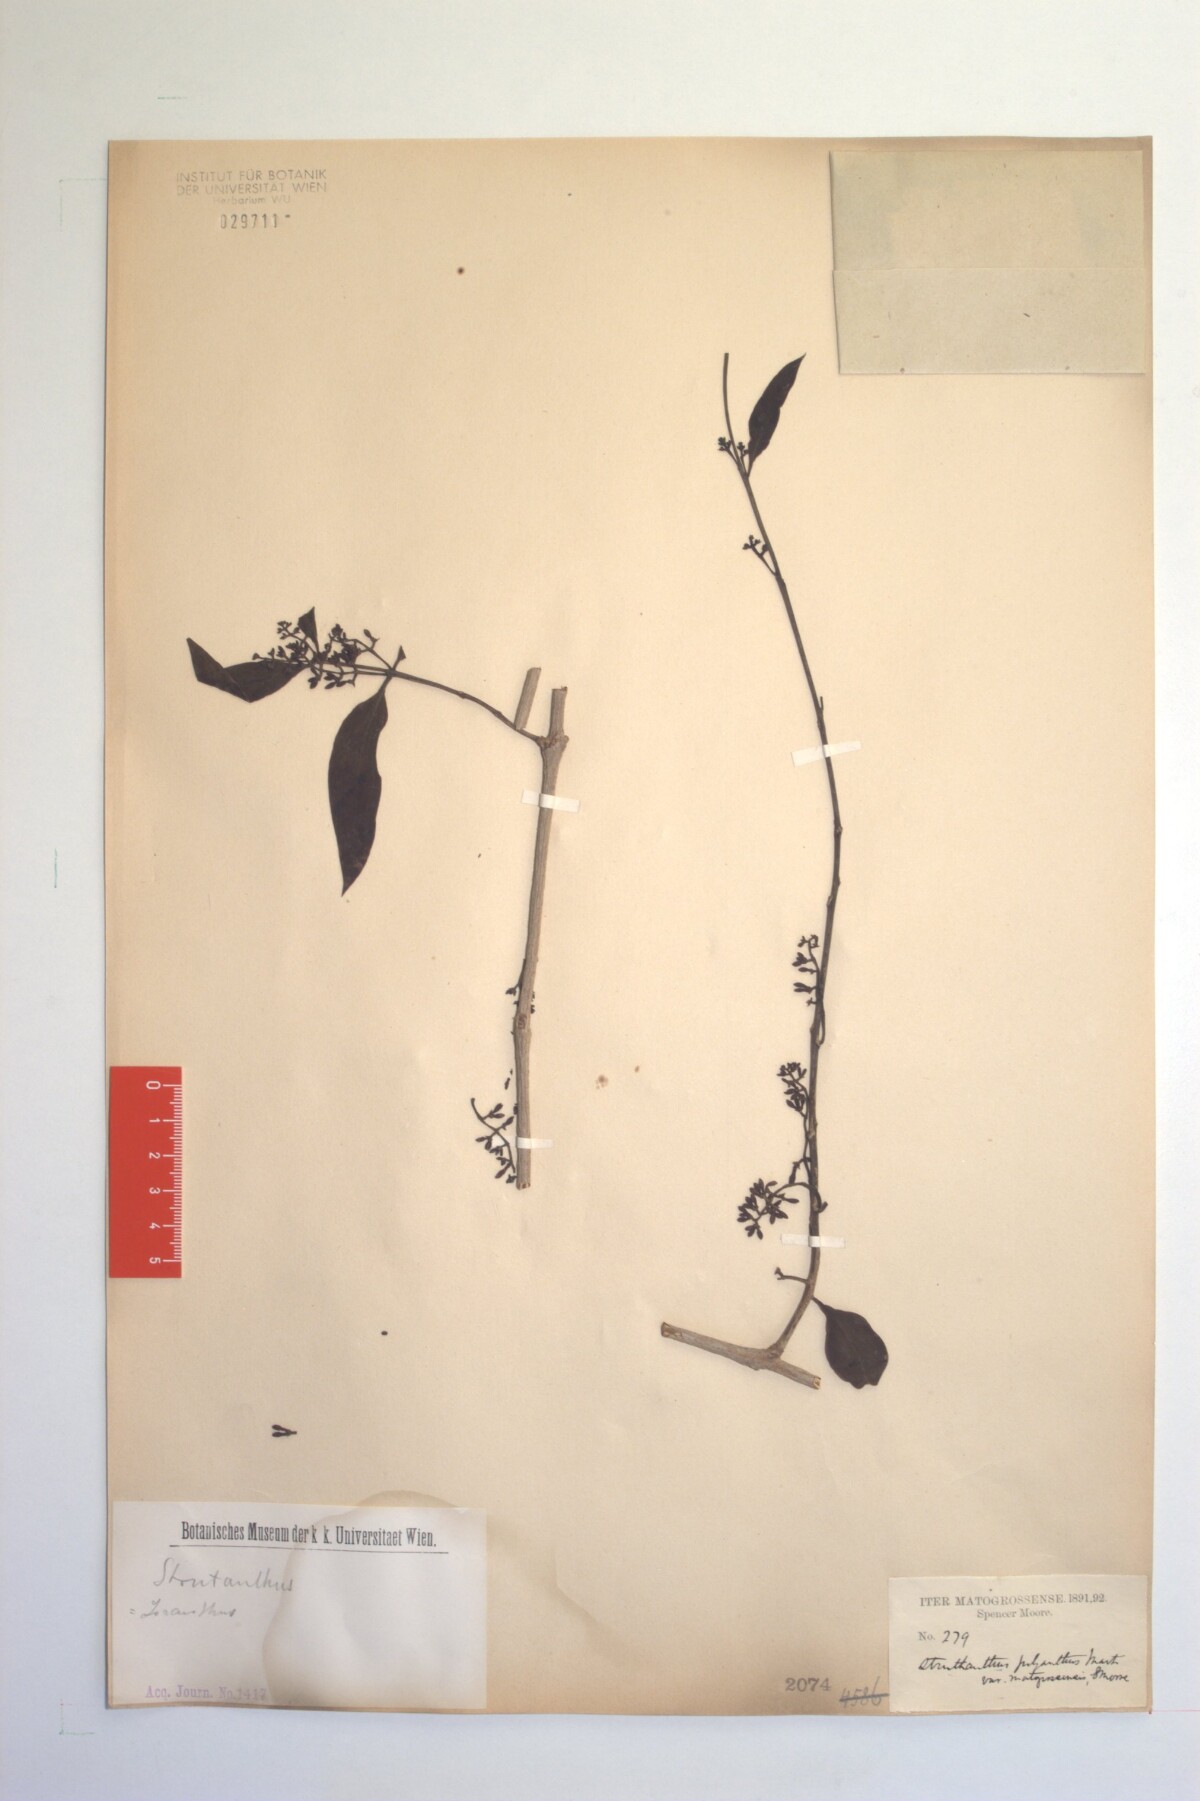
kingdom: Plantae
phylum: Tracheophyta
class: Magnoliopsida
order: Santalales
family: Loranthaceae
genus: Struthanthus
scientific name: Struthanthus polyanthus
